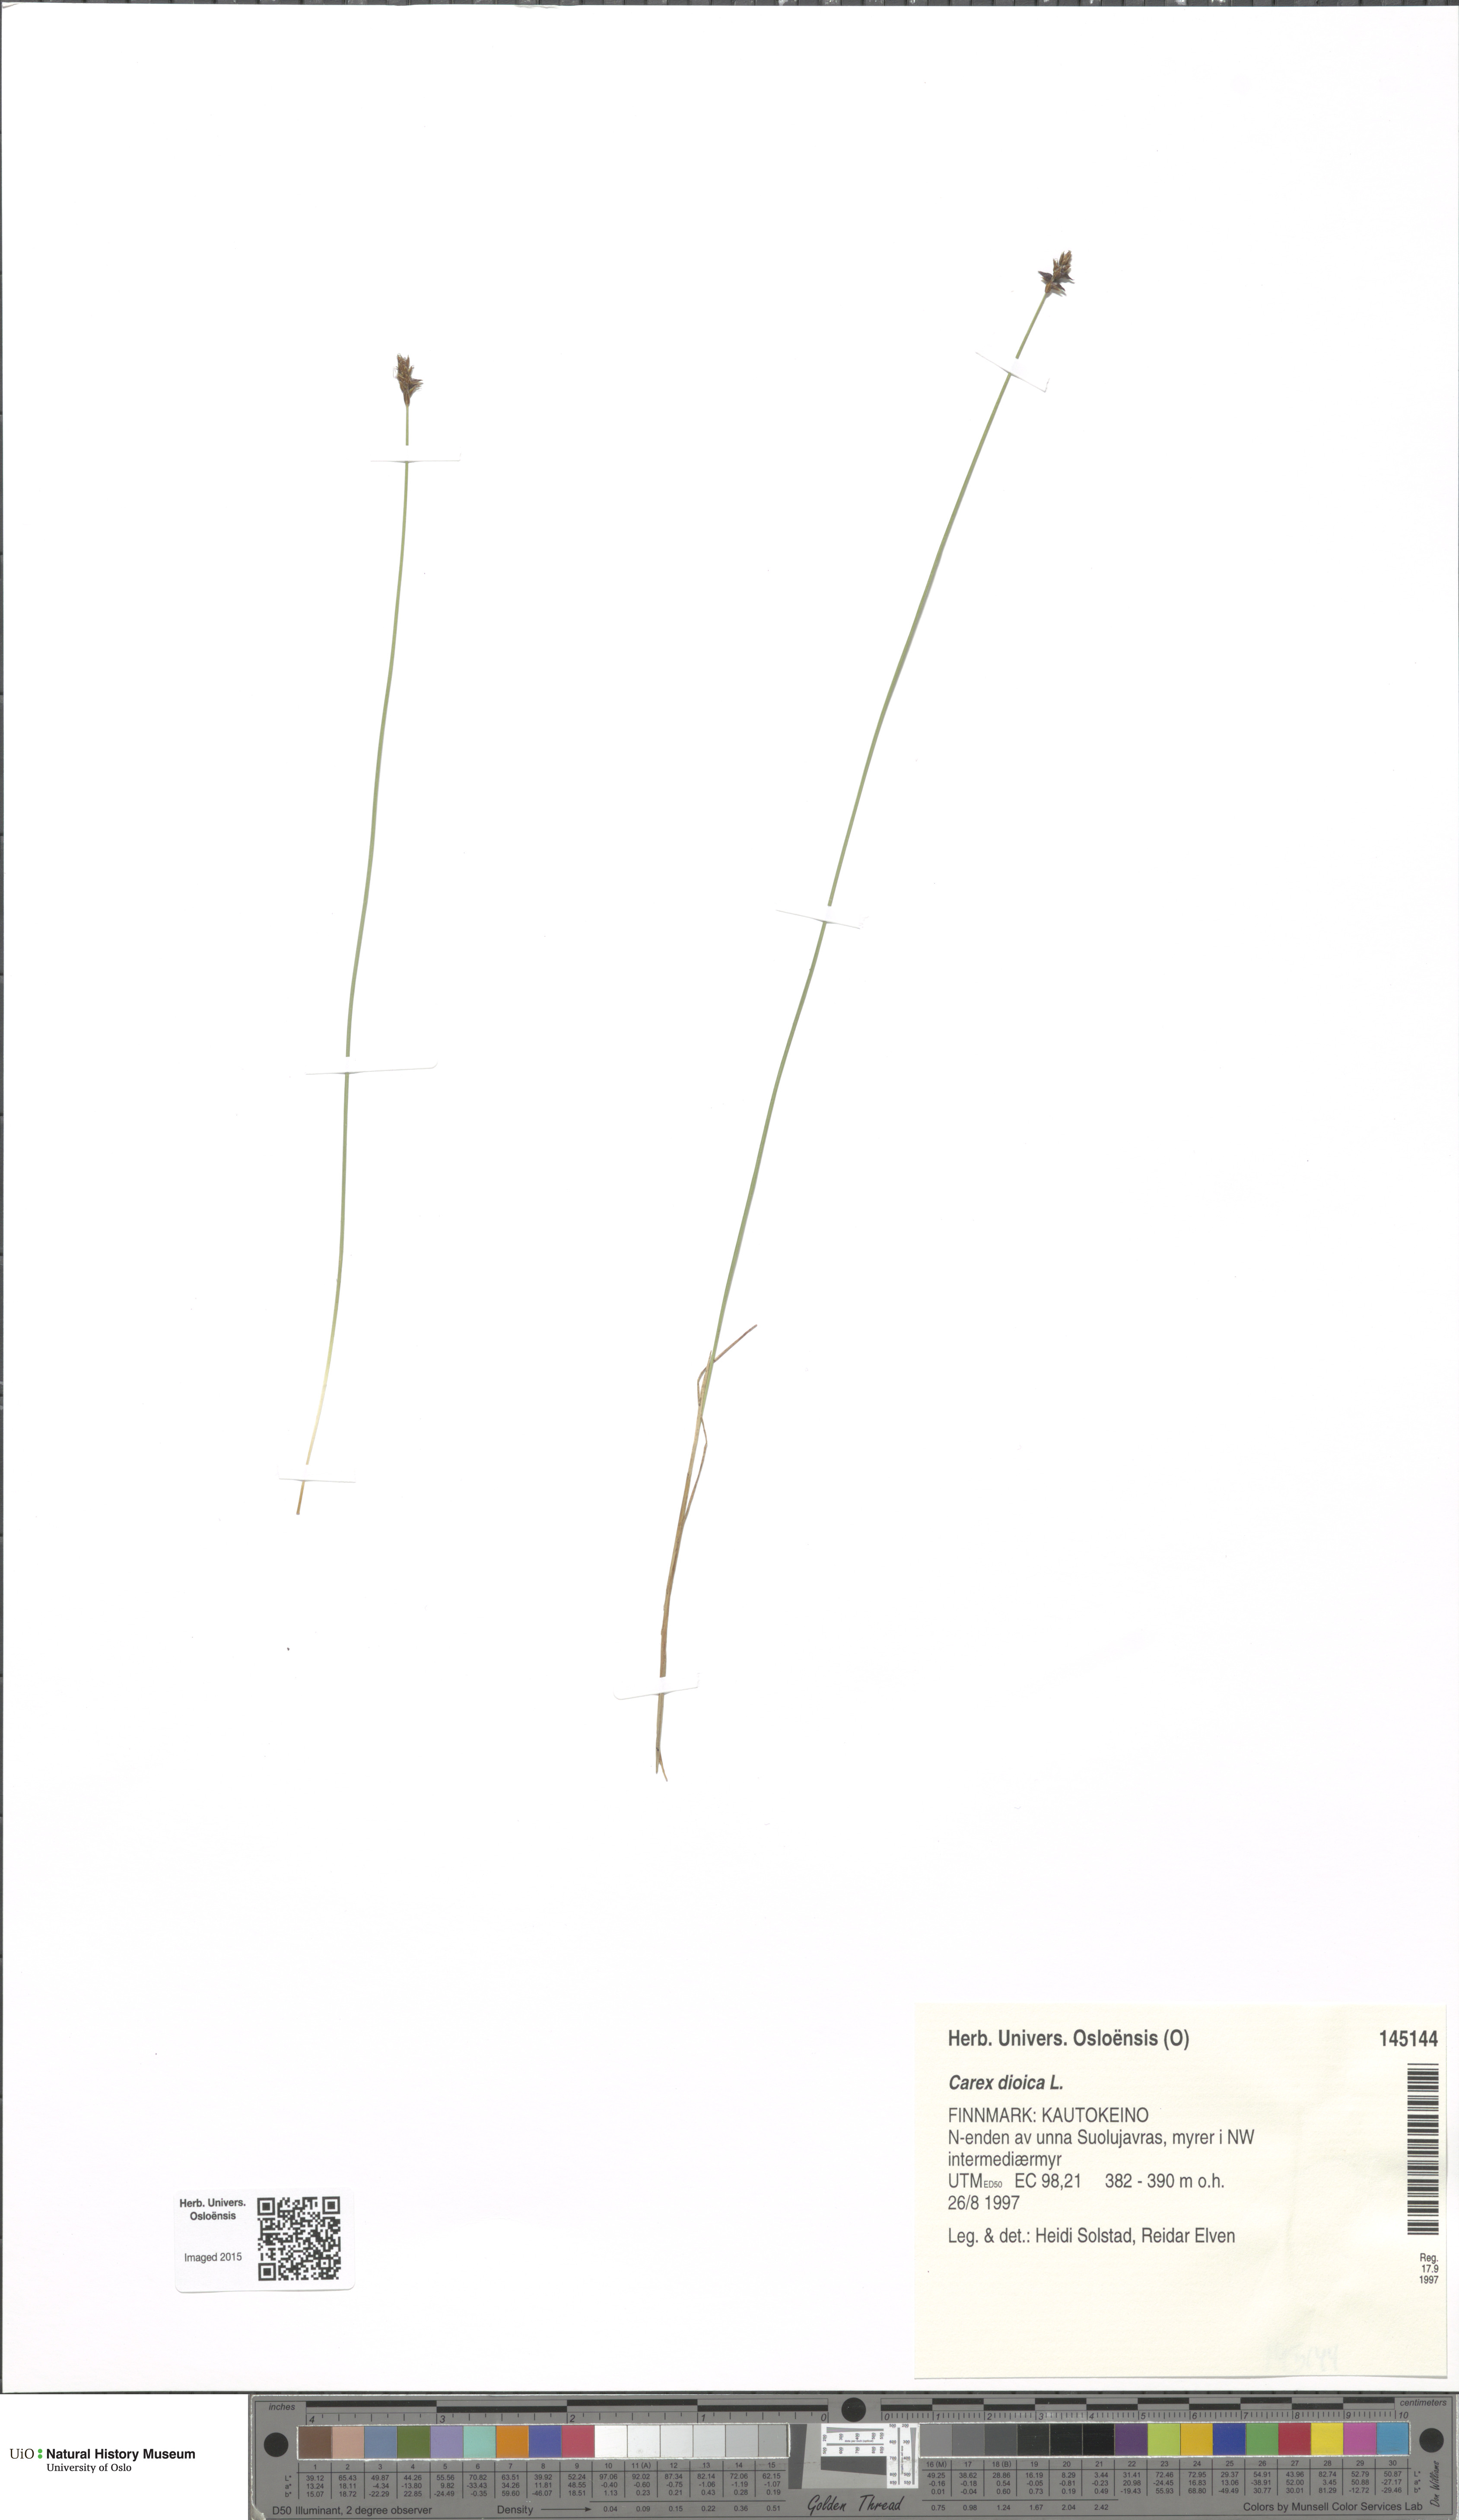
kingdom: Plantae
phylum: Tracheophyta
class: Liliopsida
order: Poales
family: Cyperaceae
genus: Carex
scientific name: Carex dioica
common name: Dioecious sedge
